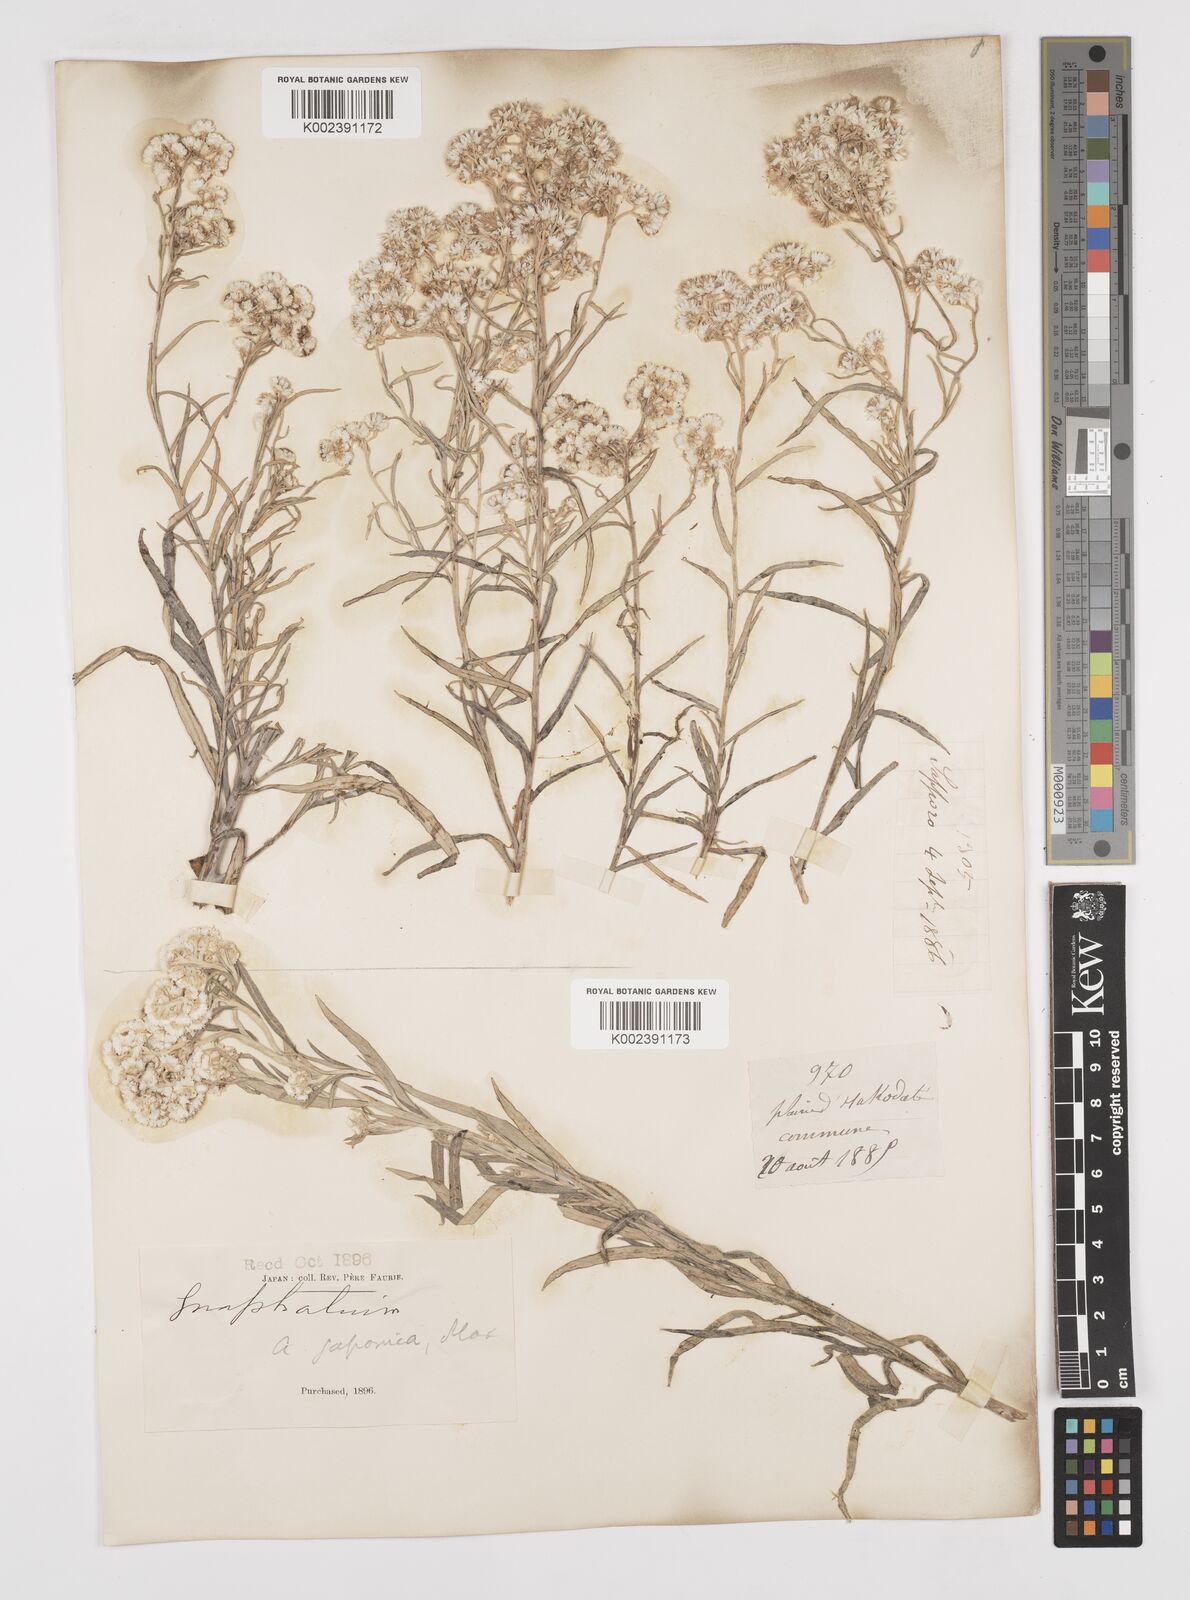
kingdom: Plantae
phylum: Tracheophyta
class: Magnoliopsida
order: Asterales
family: Asteraceae
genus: Anaphalis
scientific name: Anaphalis margaritacea
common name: Pearly everlasting
